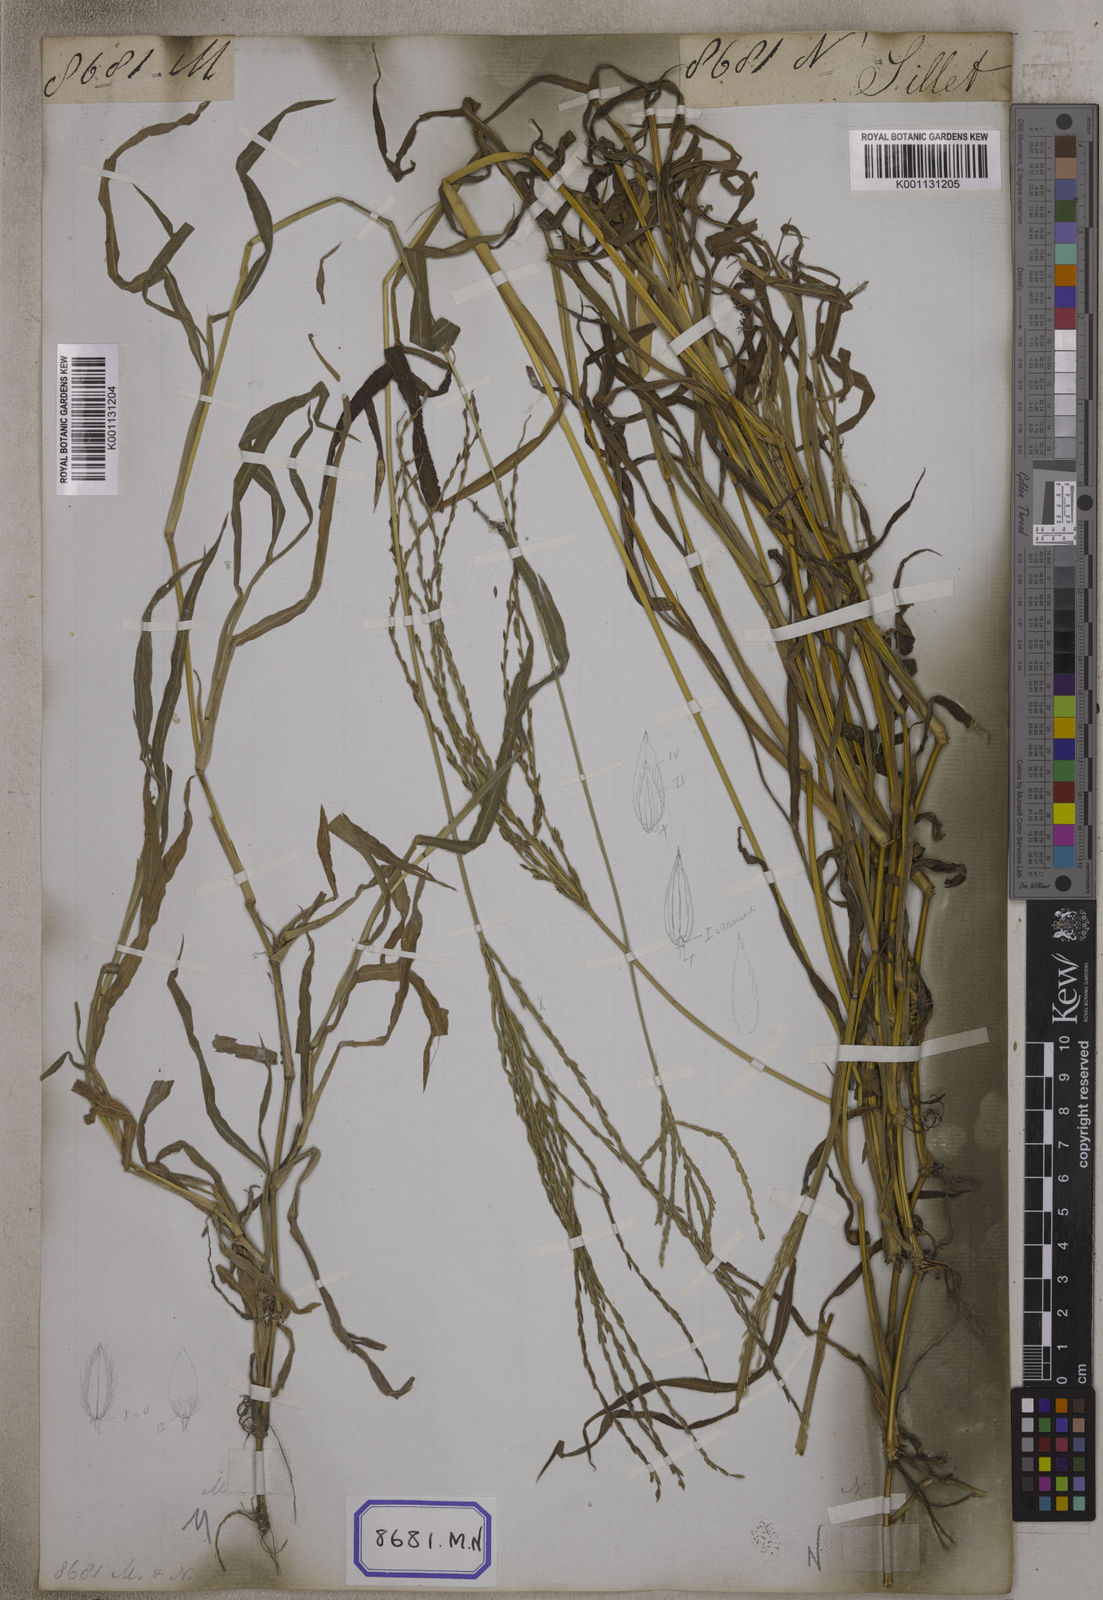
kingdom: Plantae
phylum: Tracheophyta
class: Liliopsida
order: Poales
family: Poaceae
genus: Digitaria
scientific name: Digitaria sanguinalis
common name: Hairy crabgrass
